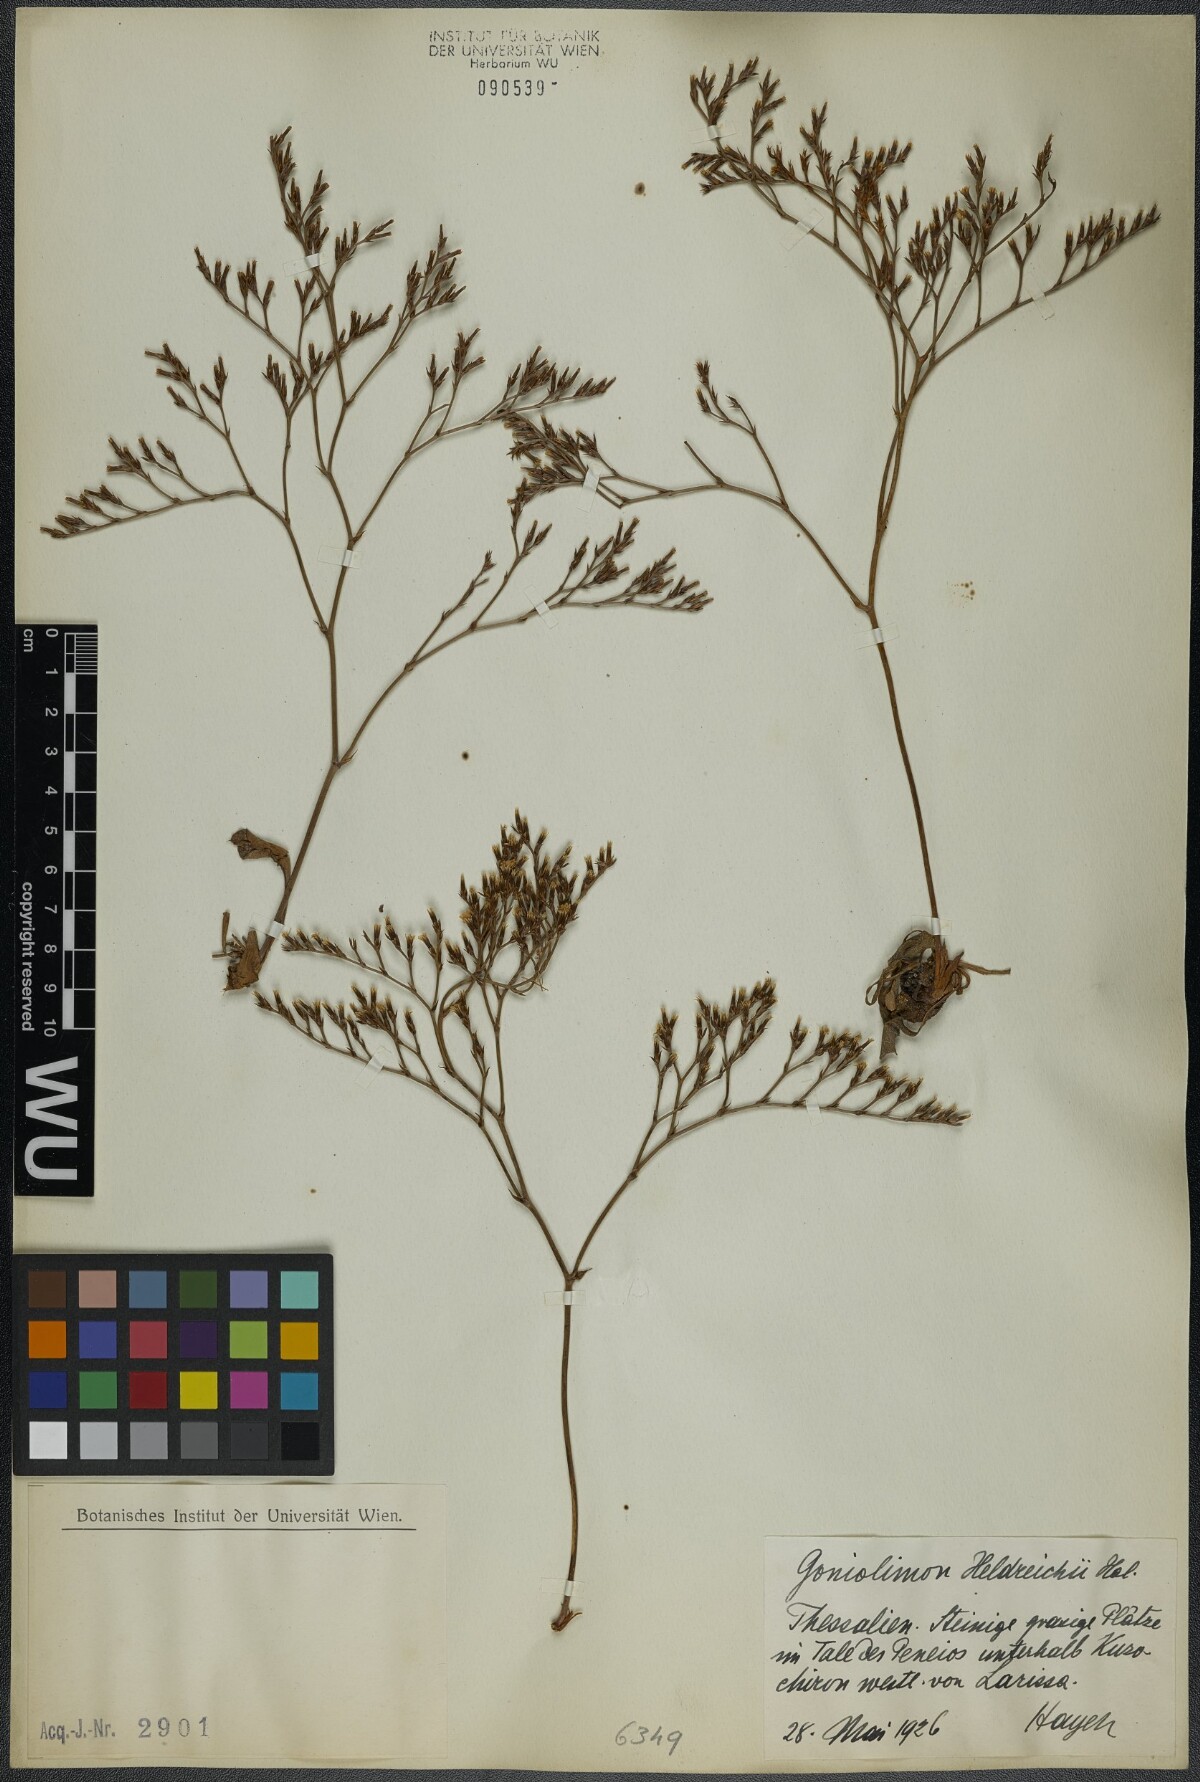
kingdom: Plantae
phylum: Tracheophyta
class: Magnoliopsida
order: Caryophyllales
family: Plumbaginaceae
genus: Goniolimon
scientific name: Goniolimon heldreichii
